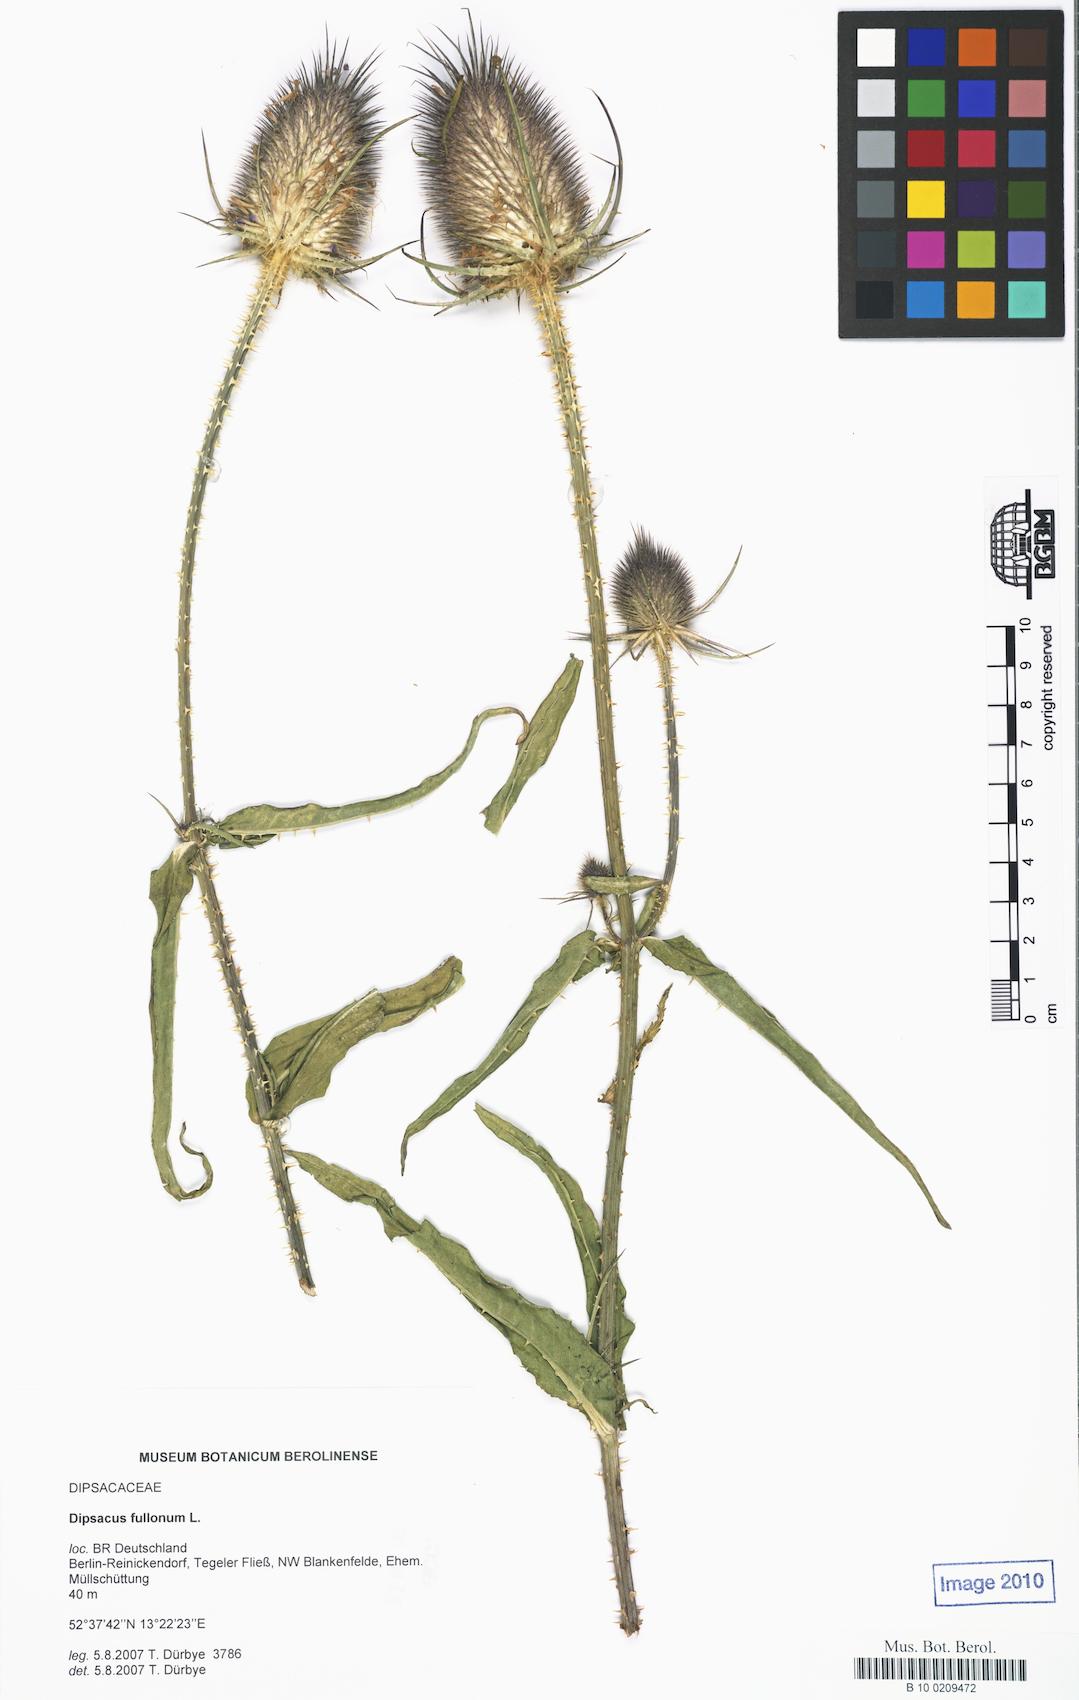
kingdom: Plantae
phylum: Tracheophyta
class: Magnoliopsida
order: Dipsacales
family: Caprifoliaceae
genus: Dipsacus
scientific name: Dipsacus fullonum
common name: Teasel
